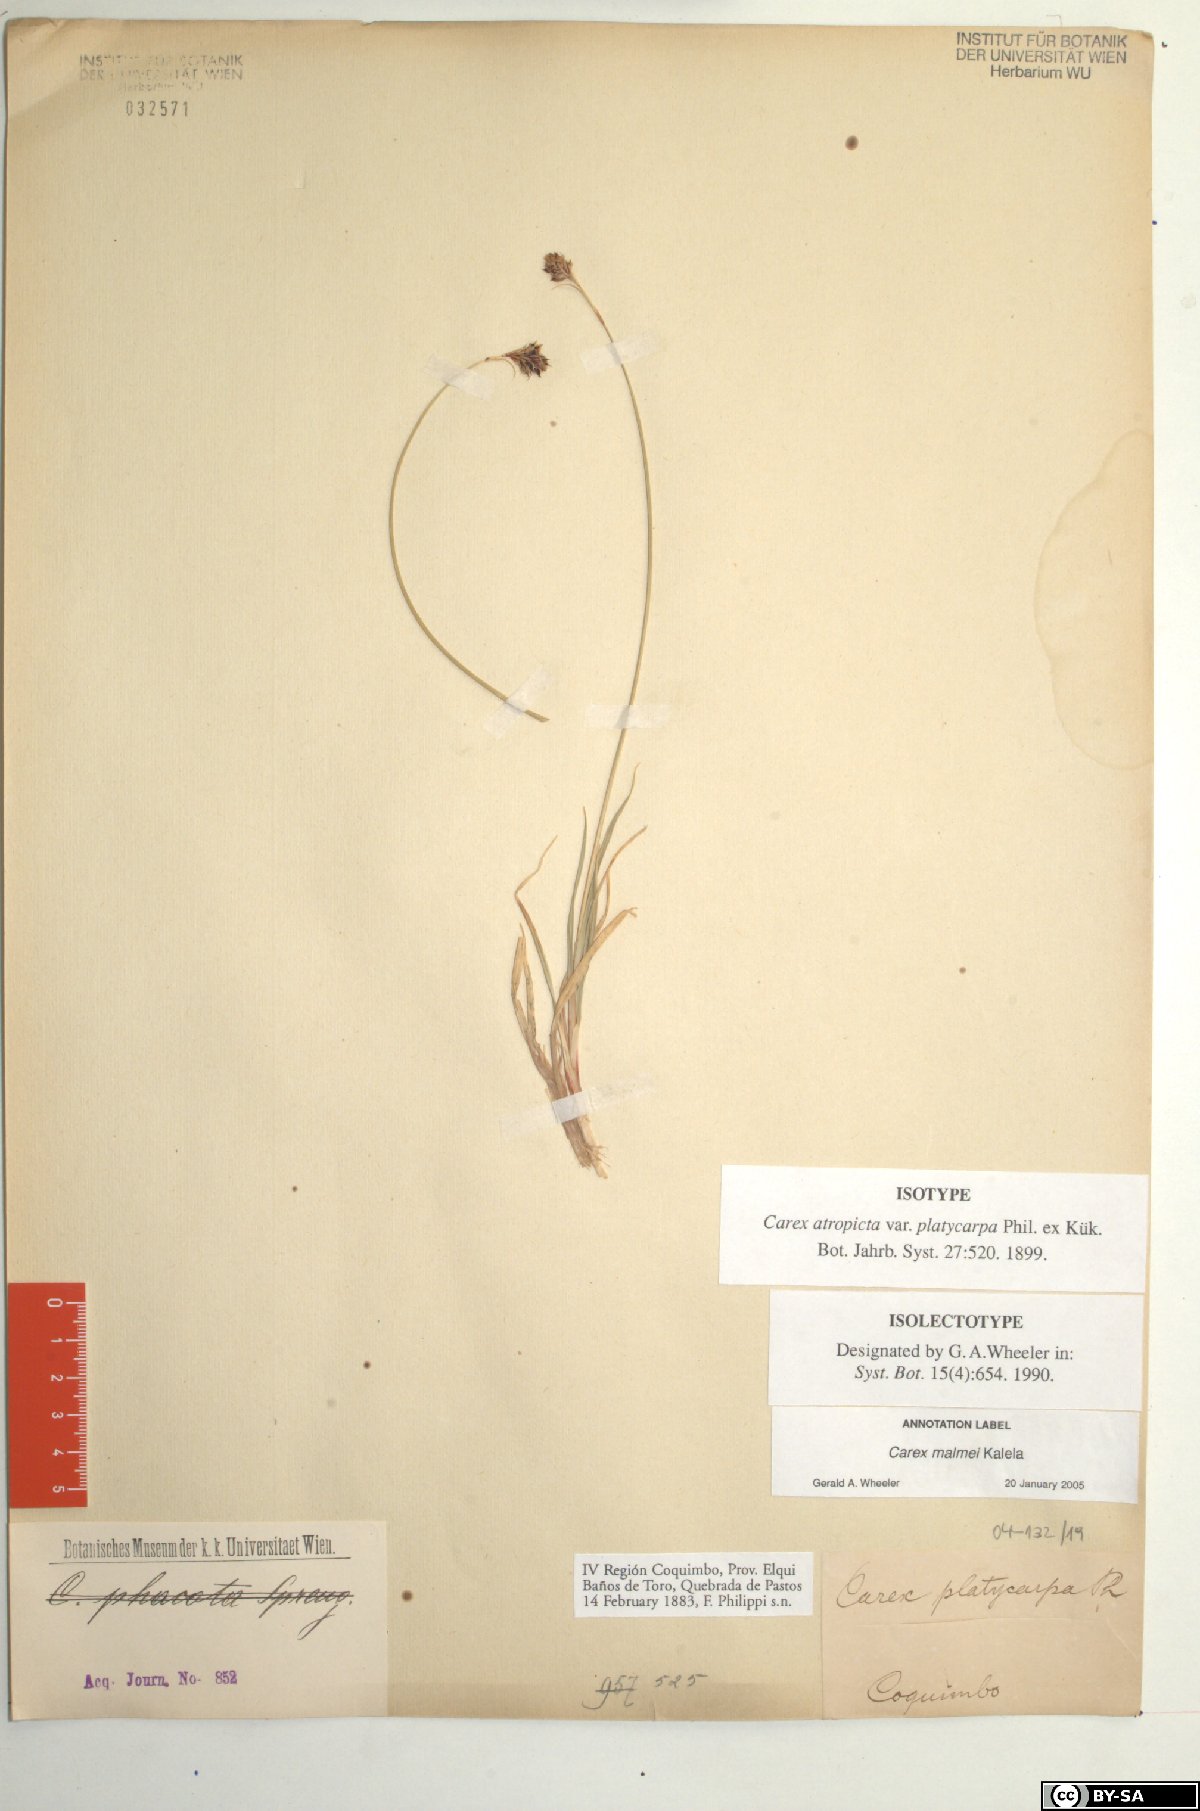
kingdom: Plantae
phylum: Tracheophyta
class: Liliopsida
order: Poales
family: Cyperaceae
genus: Carex
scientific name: Carex malmei
